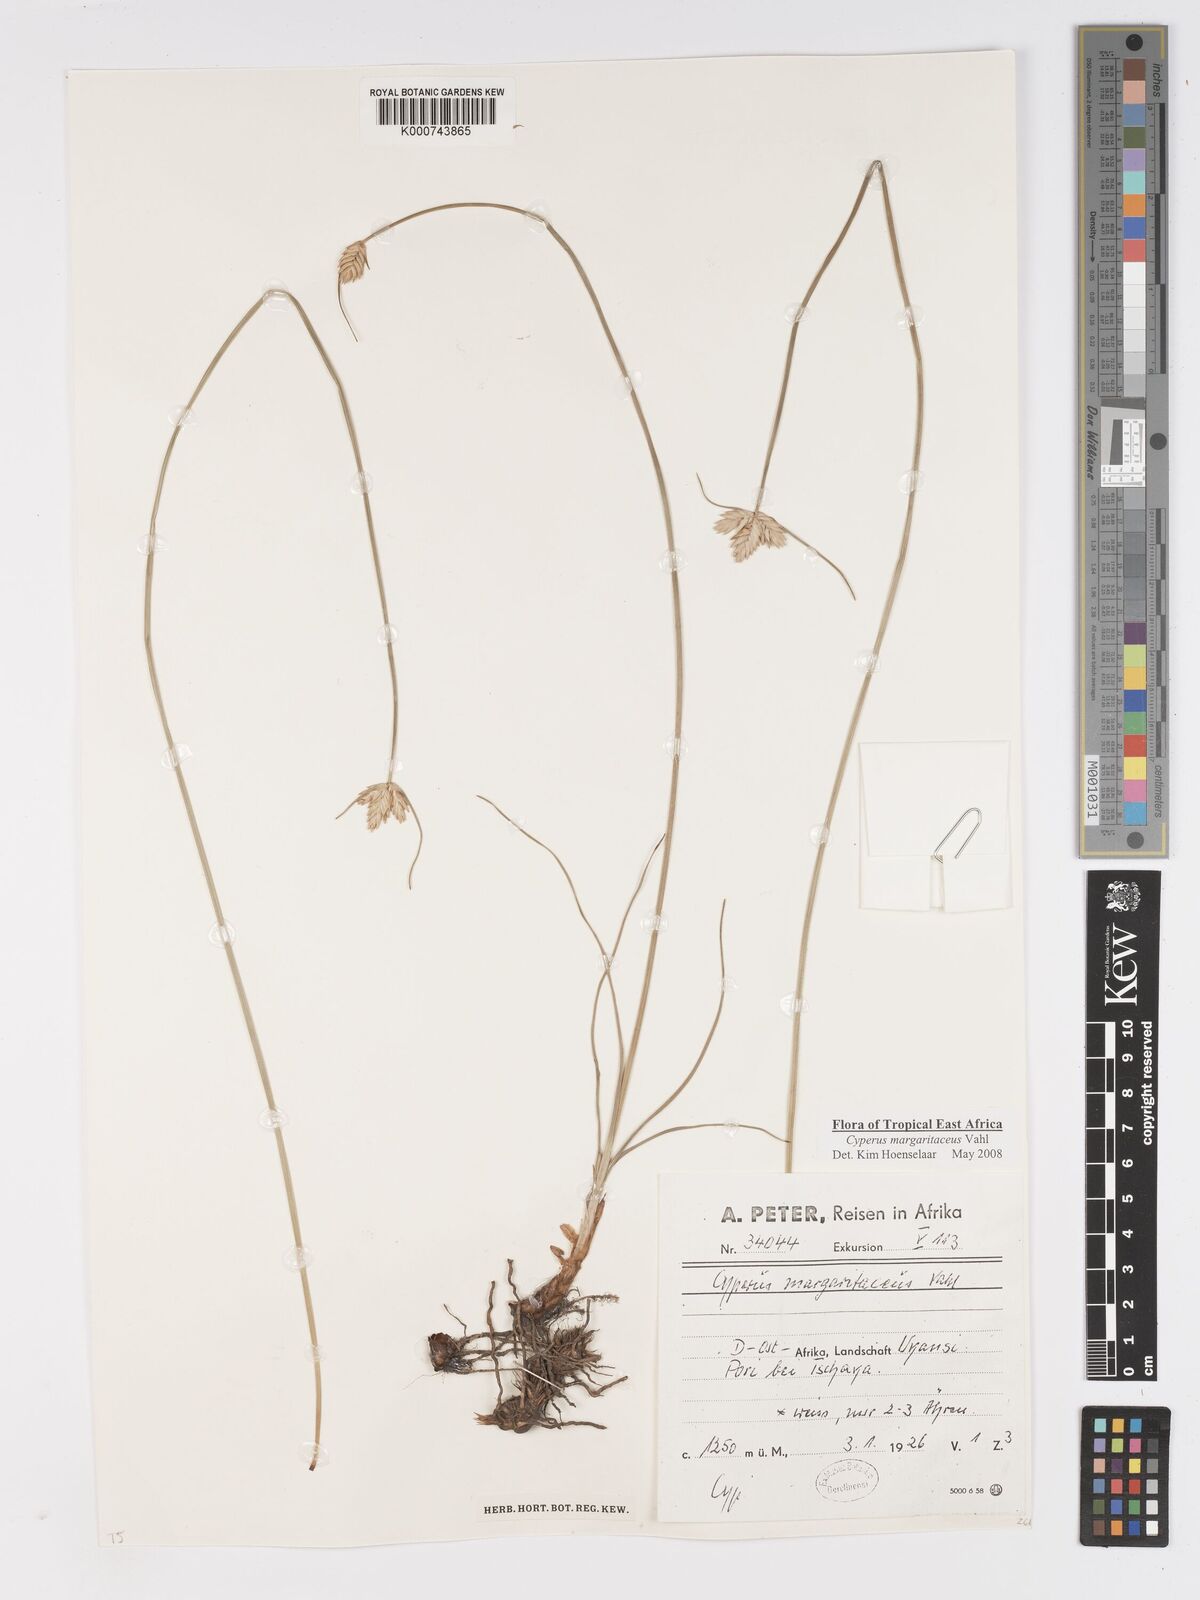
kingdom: Plantae
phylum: Tracheophyta
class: Liliopsida
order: Poales
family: Cyperaceae
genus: Cyperus
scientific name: Cyperus margaritaceus
